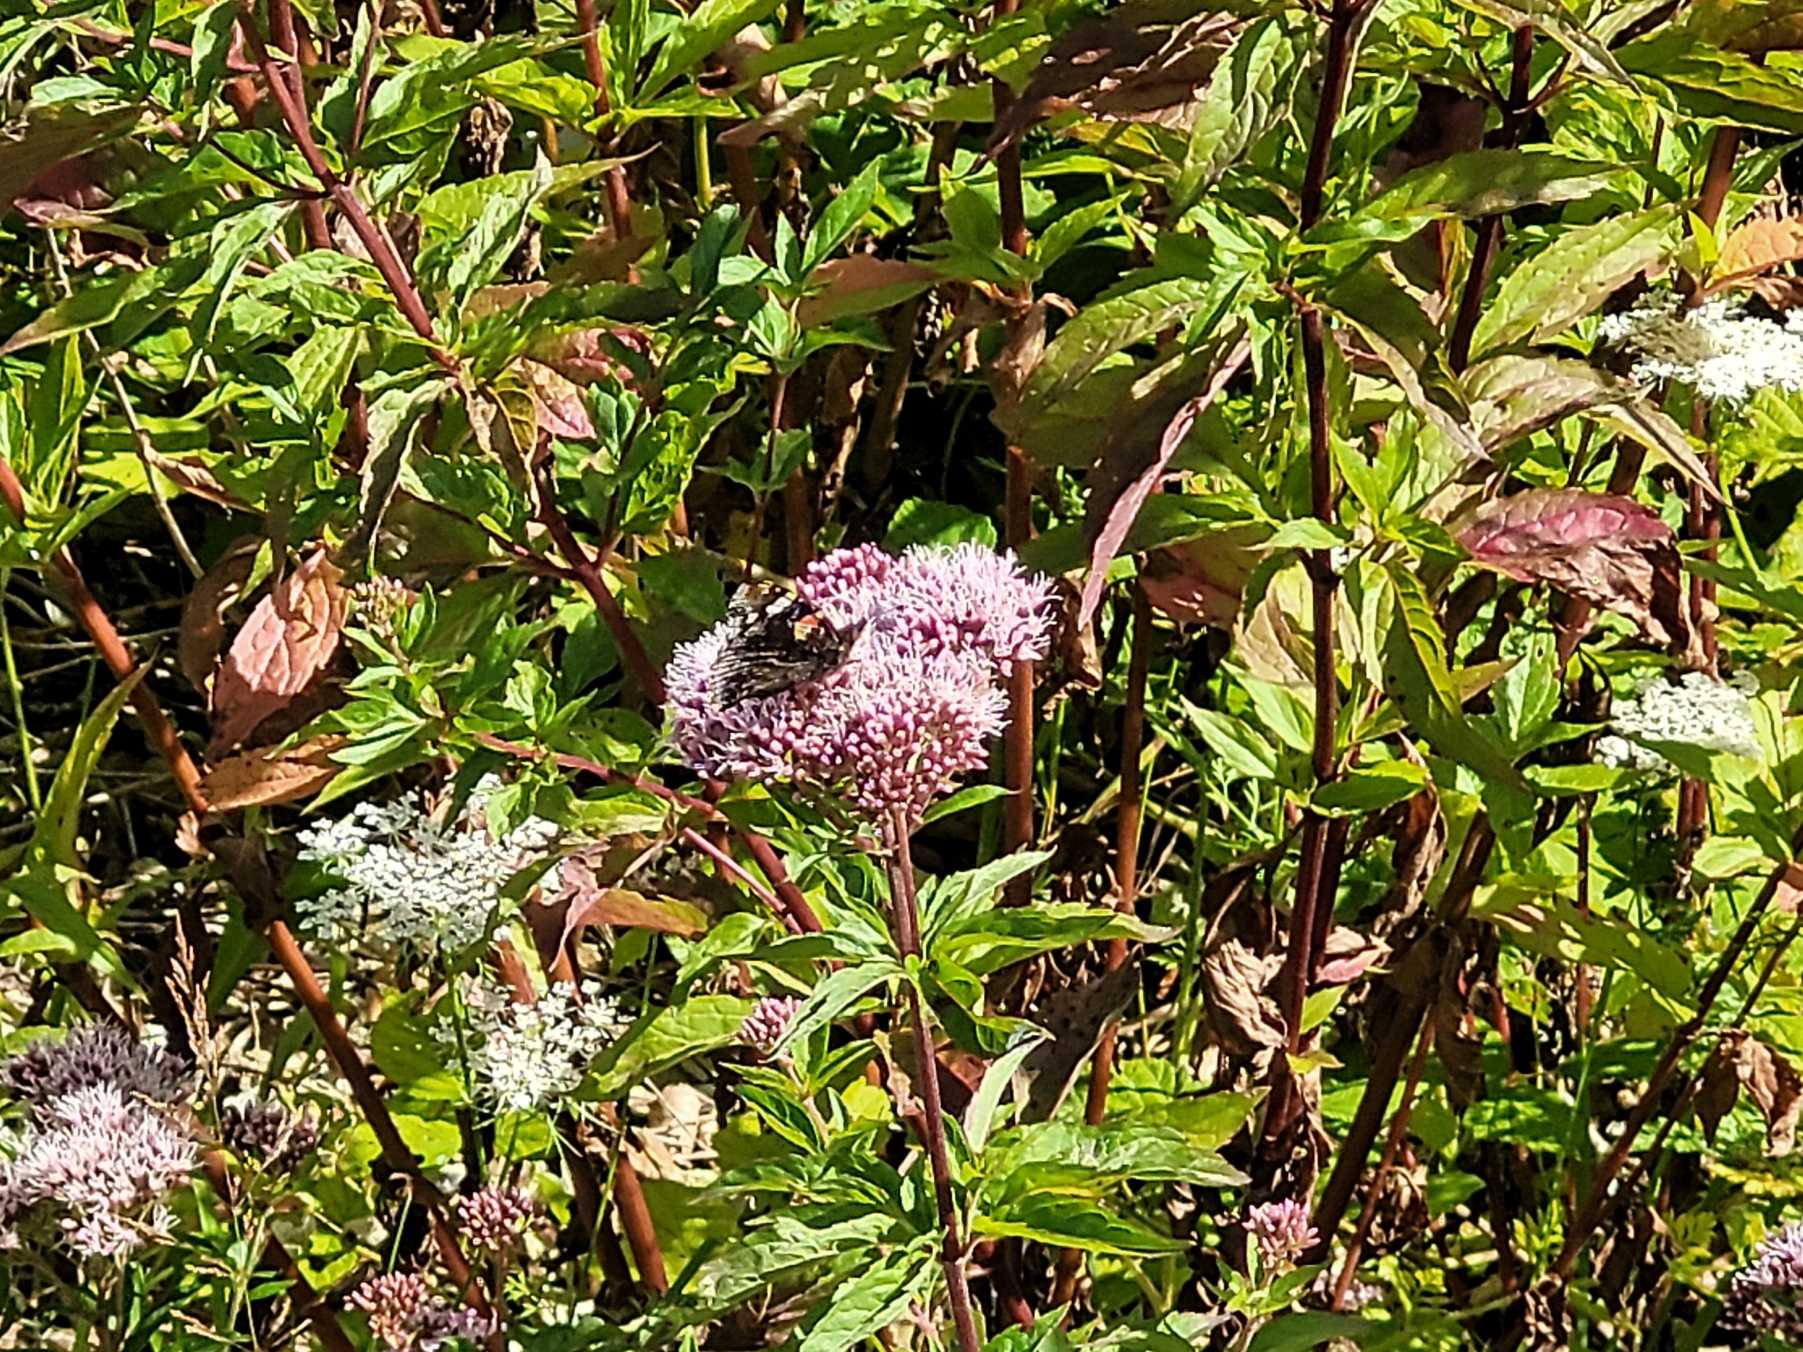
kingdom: Animalia
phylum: Arthropoda
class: Insecta
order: Lepidoptera
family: Nymphalidae
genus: Vanessa
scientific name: Vanessa atalanta
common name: Admiral
